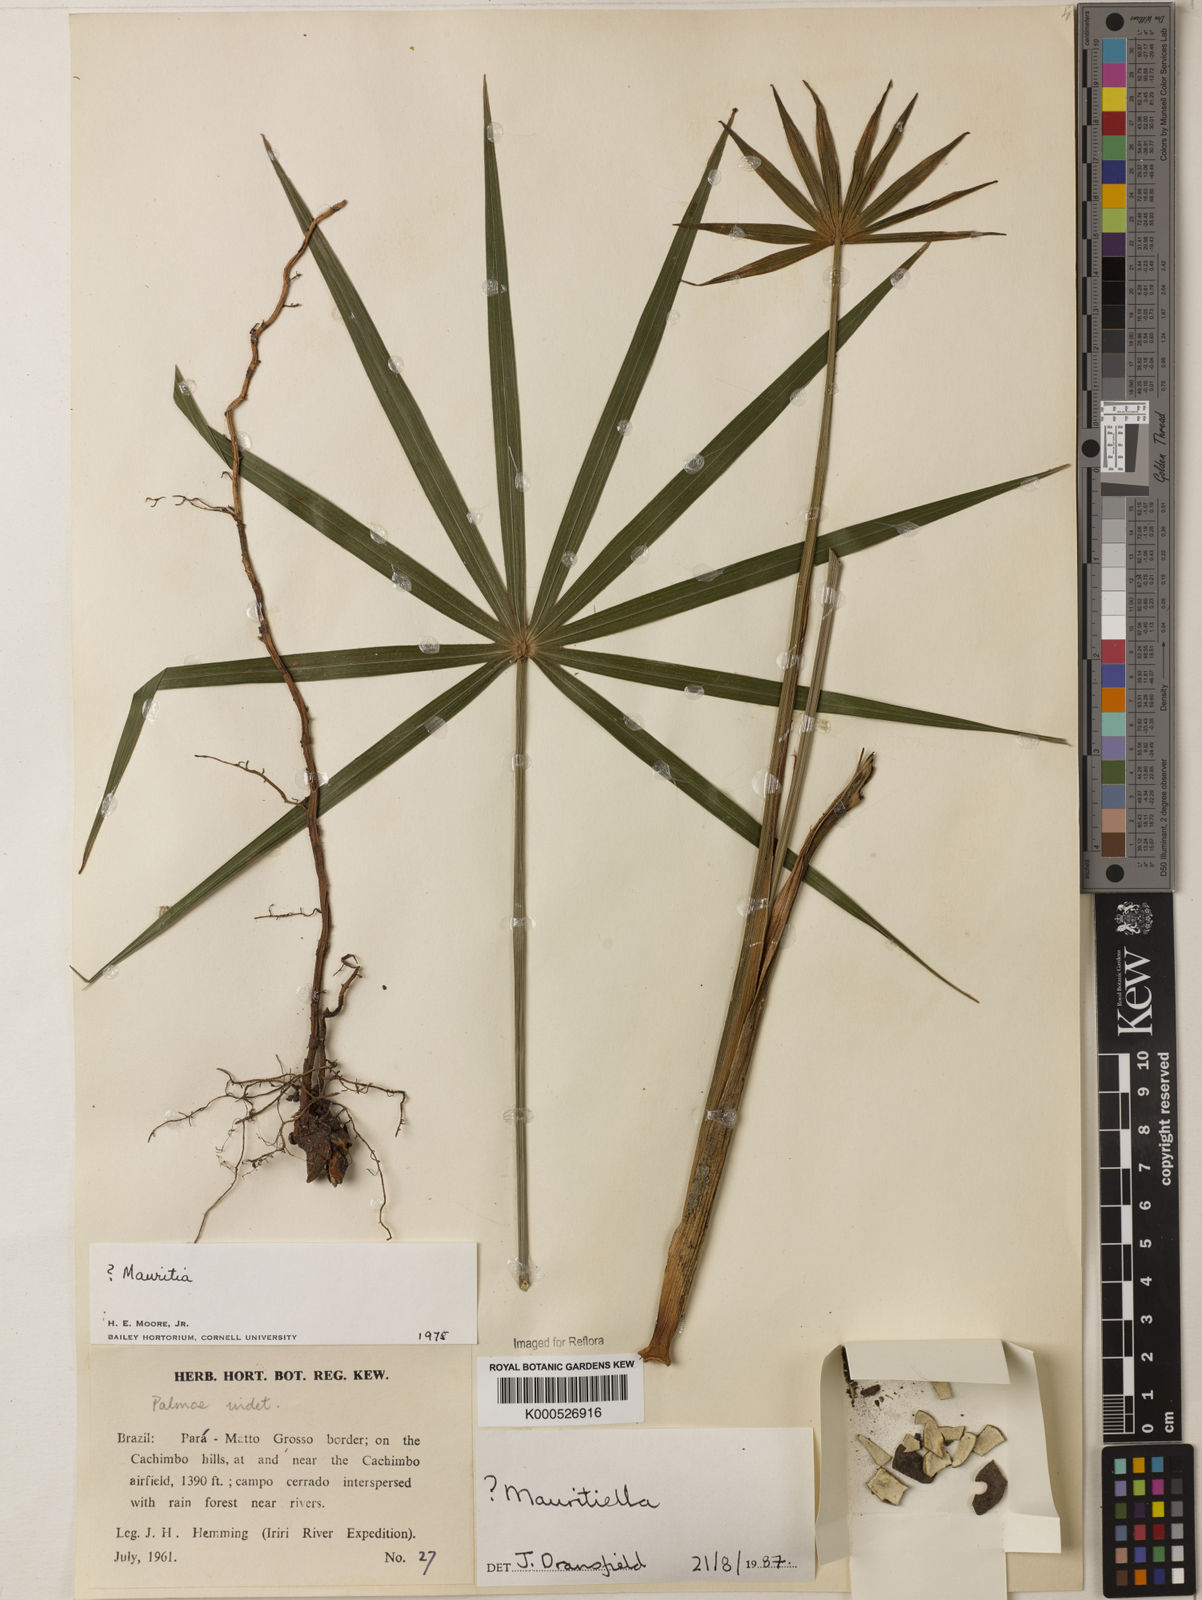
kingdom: Plantae
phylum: Tracheophyta
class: Liliopsida
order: Arecales
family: Arecaceae
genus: Mauritiella
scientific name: Mauritiella
